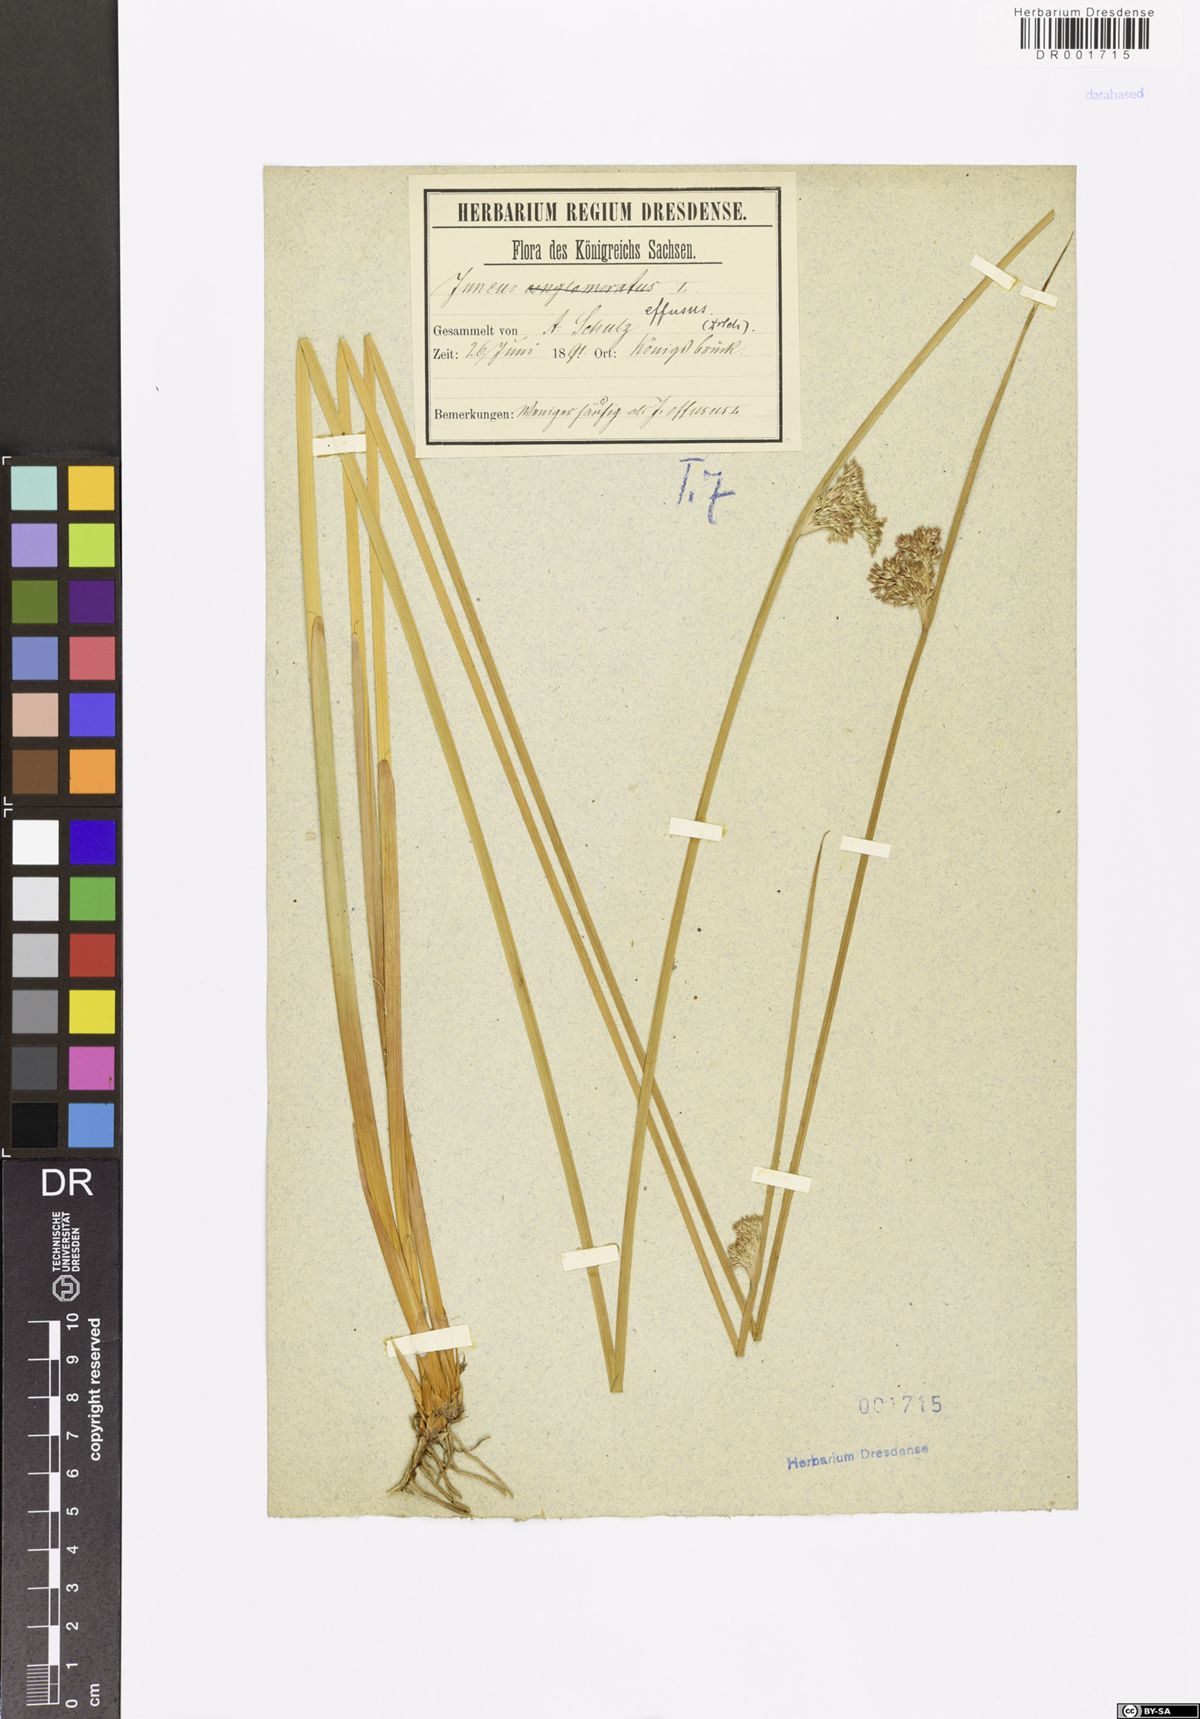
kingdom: Plantae
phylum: Tracheophyta
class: Liliopsida
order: Poales
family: Juncaceae
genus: Juncus
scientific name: Juncus effusus
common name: Soft rush
